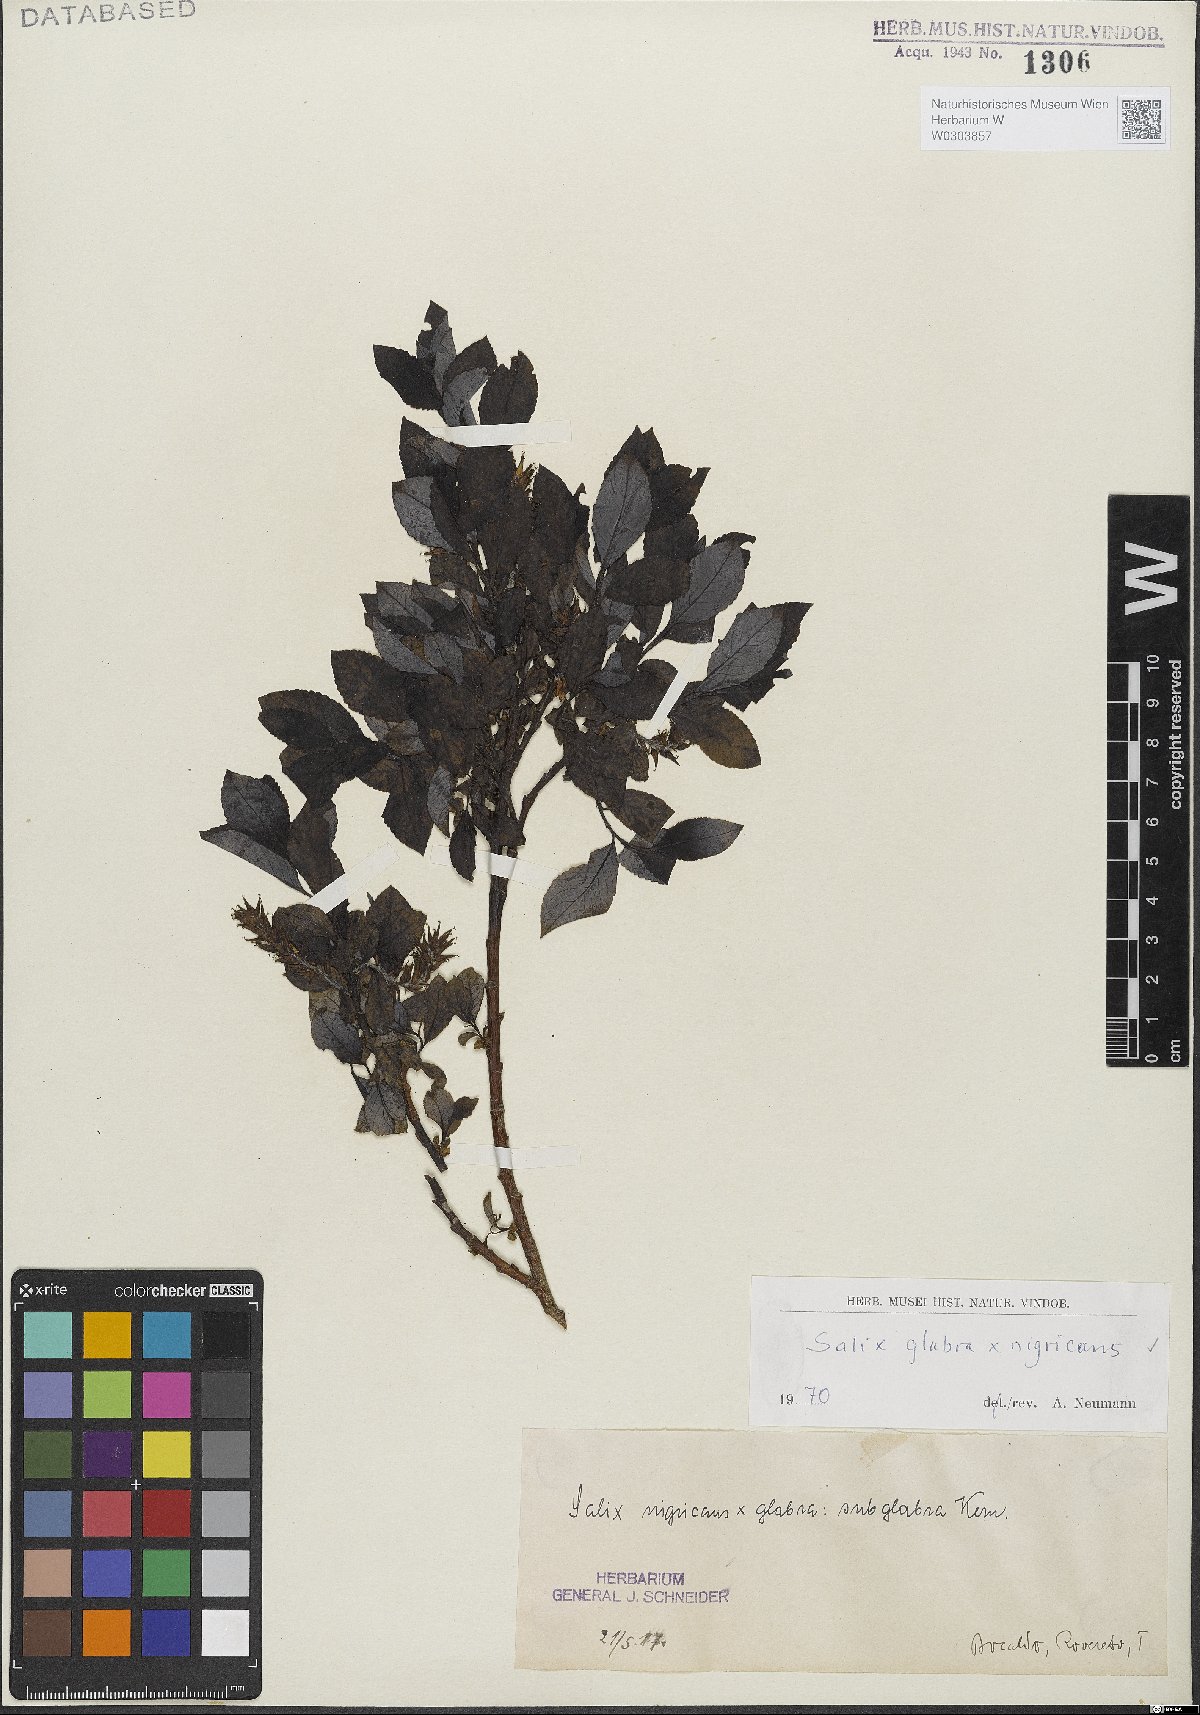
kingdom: Plantae
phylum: Tracheophyta
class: Magnoliopsida
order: Malpighiales
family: Salicaceae
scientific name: Salicaceae
